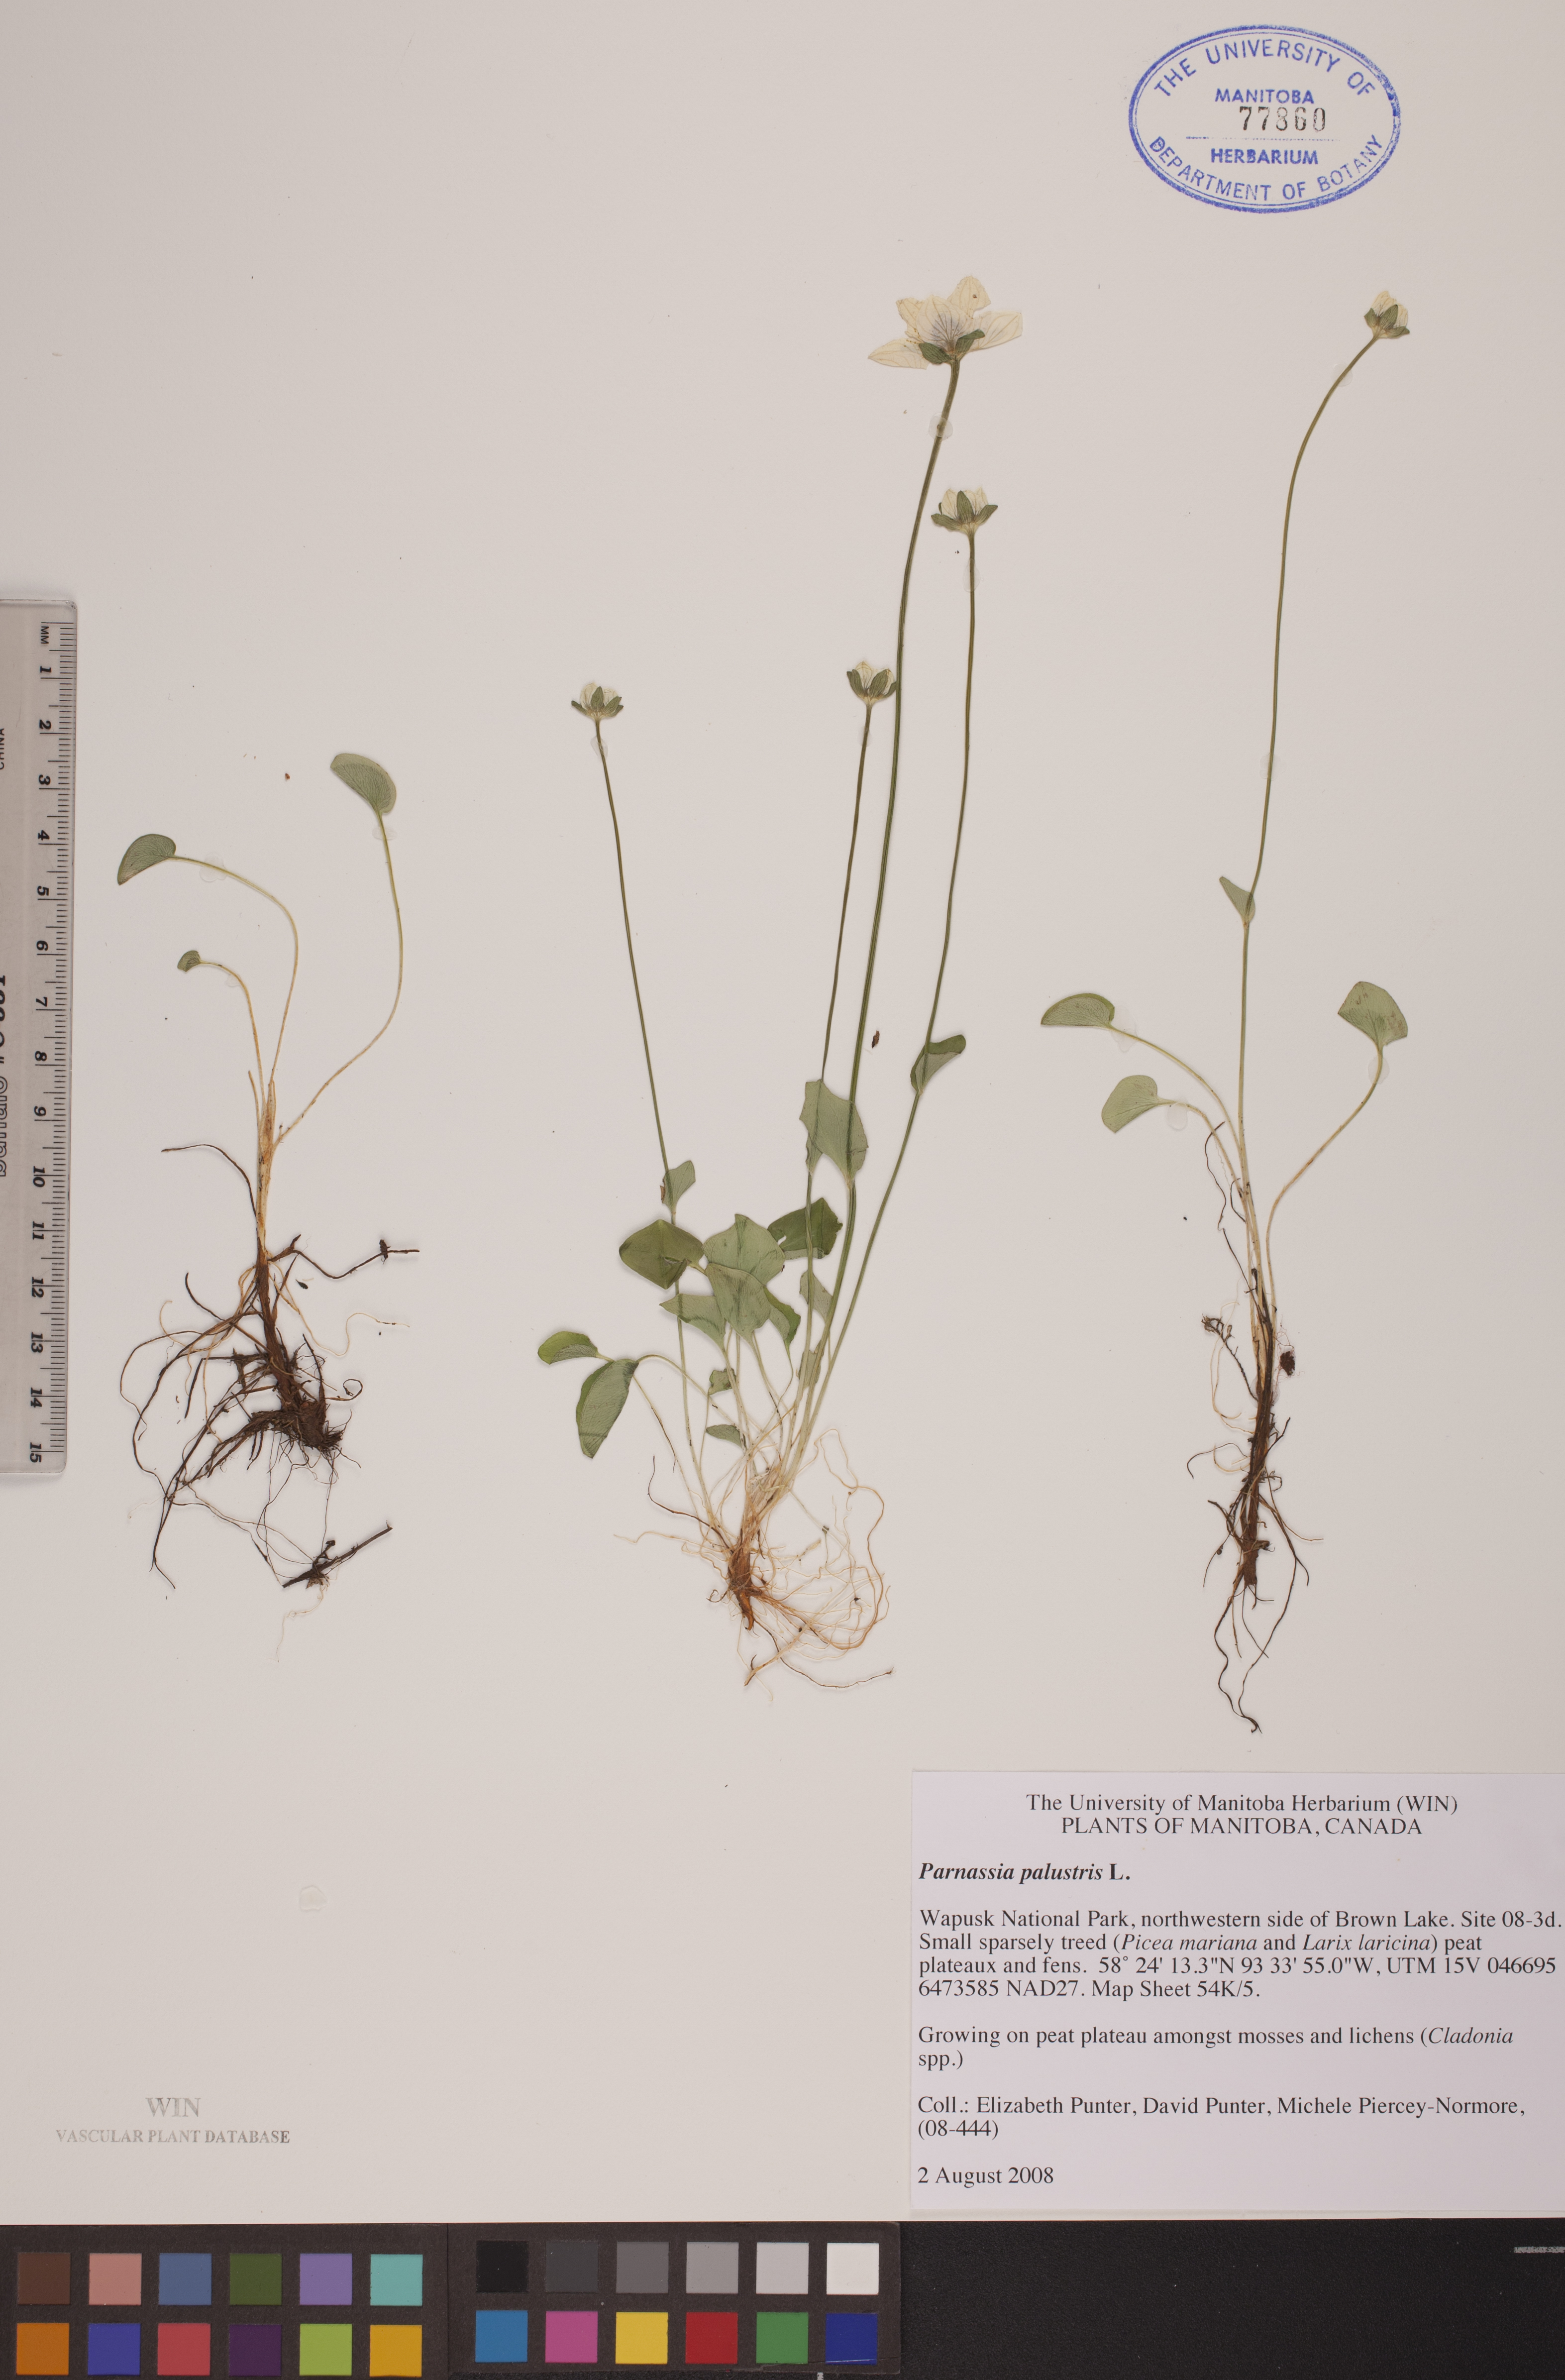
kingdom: Plantae
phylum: Tracheophyta
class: Magnoliopsida
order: Celastrales
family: Parnassiaceae
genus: Parnassia
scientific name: Parnassia palustris
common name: Grass-of-parnassus
